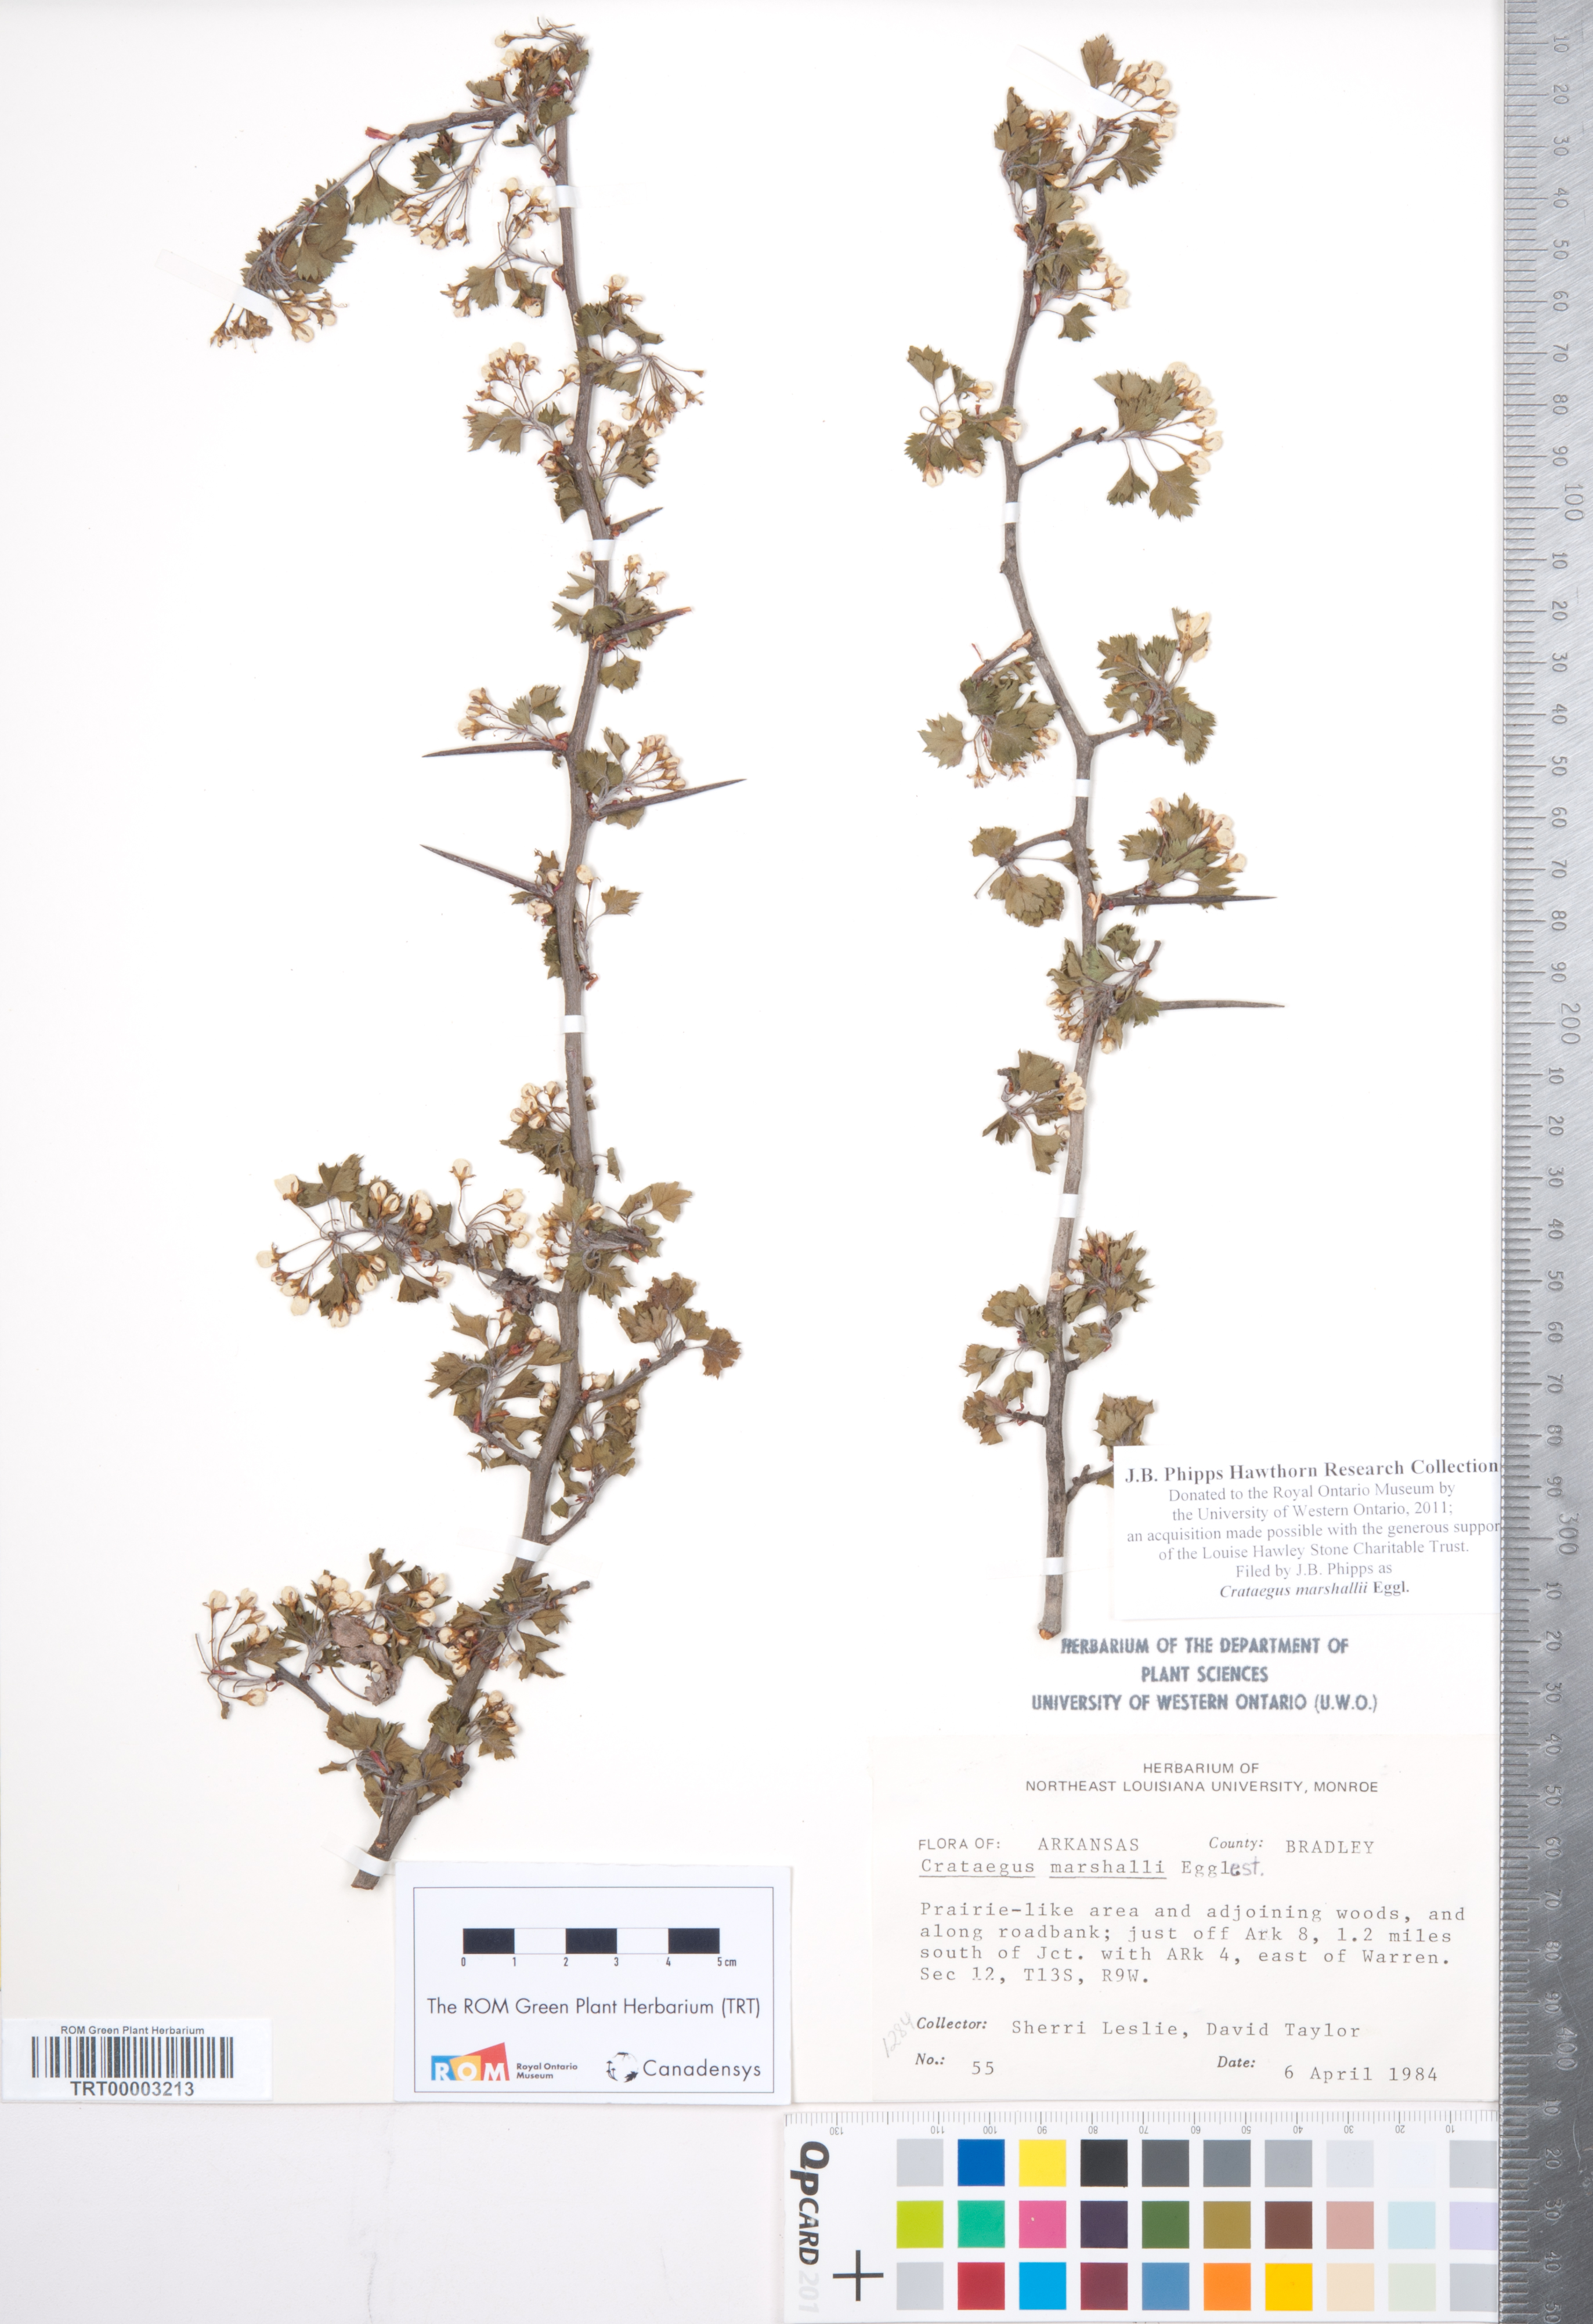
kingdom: Plantae
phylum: Tracheophyta
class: Magnoliopsida
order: Rosales
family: Rosaceae
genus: Crataegus
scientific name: Crataegus marshallii
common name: Parsley-hawthorn
